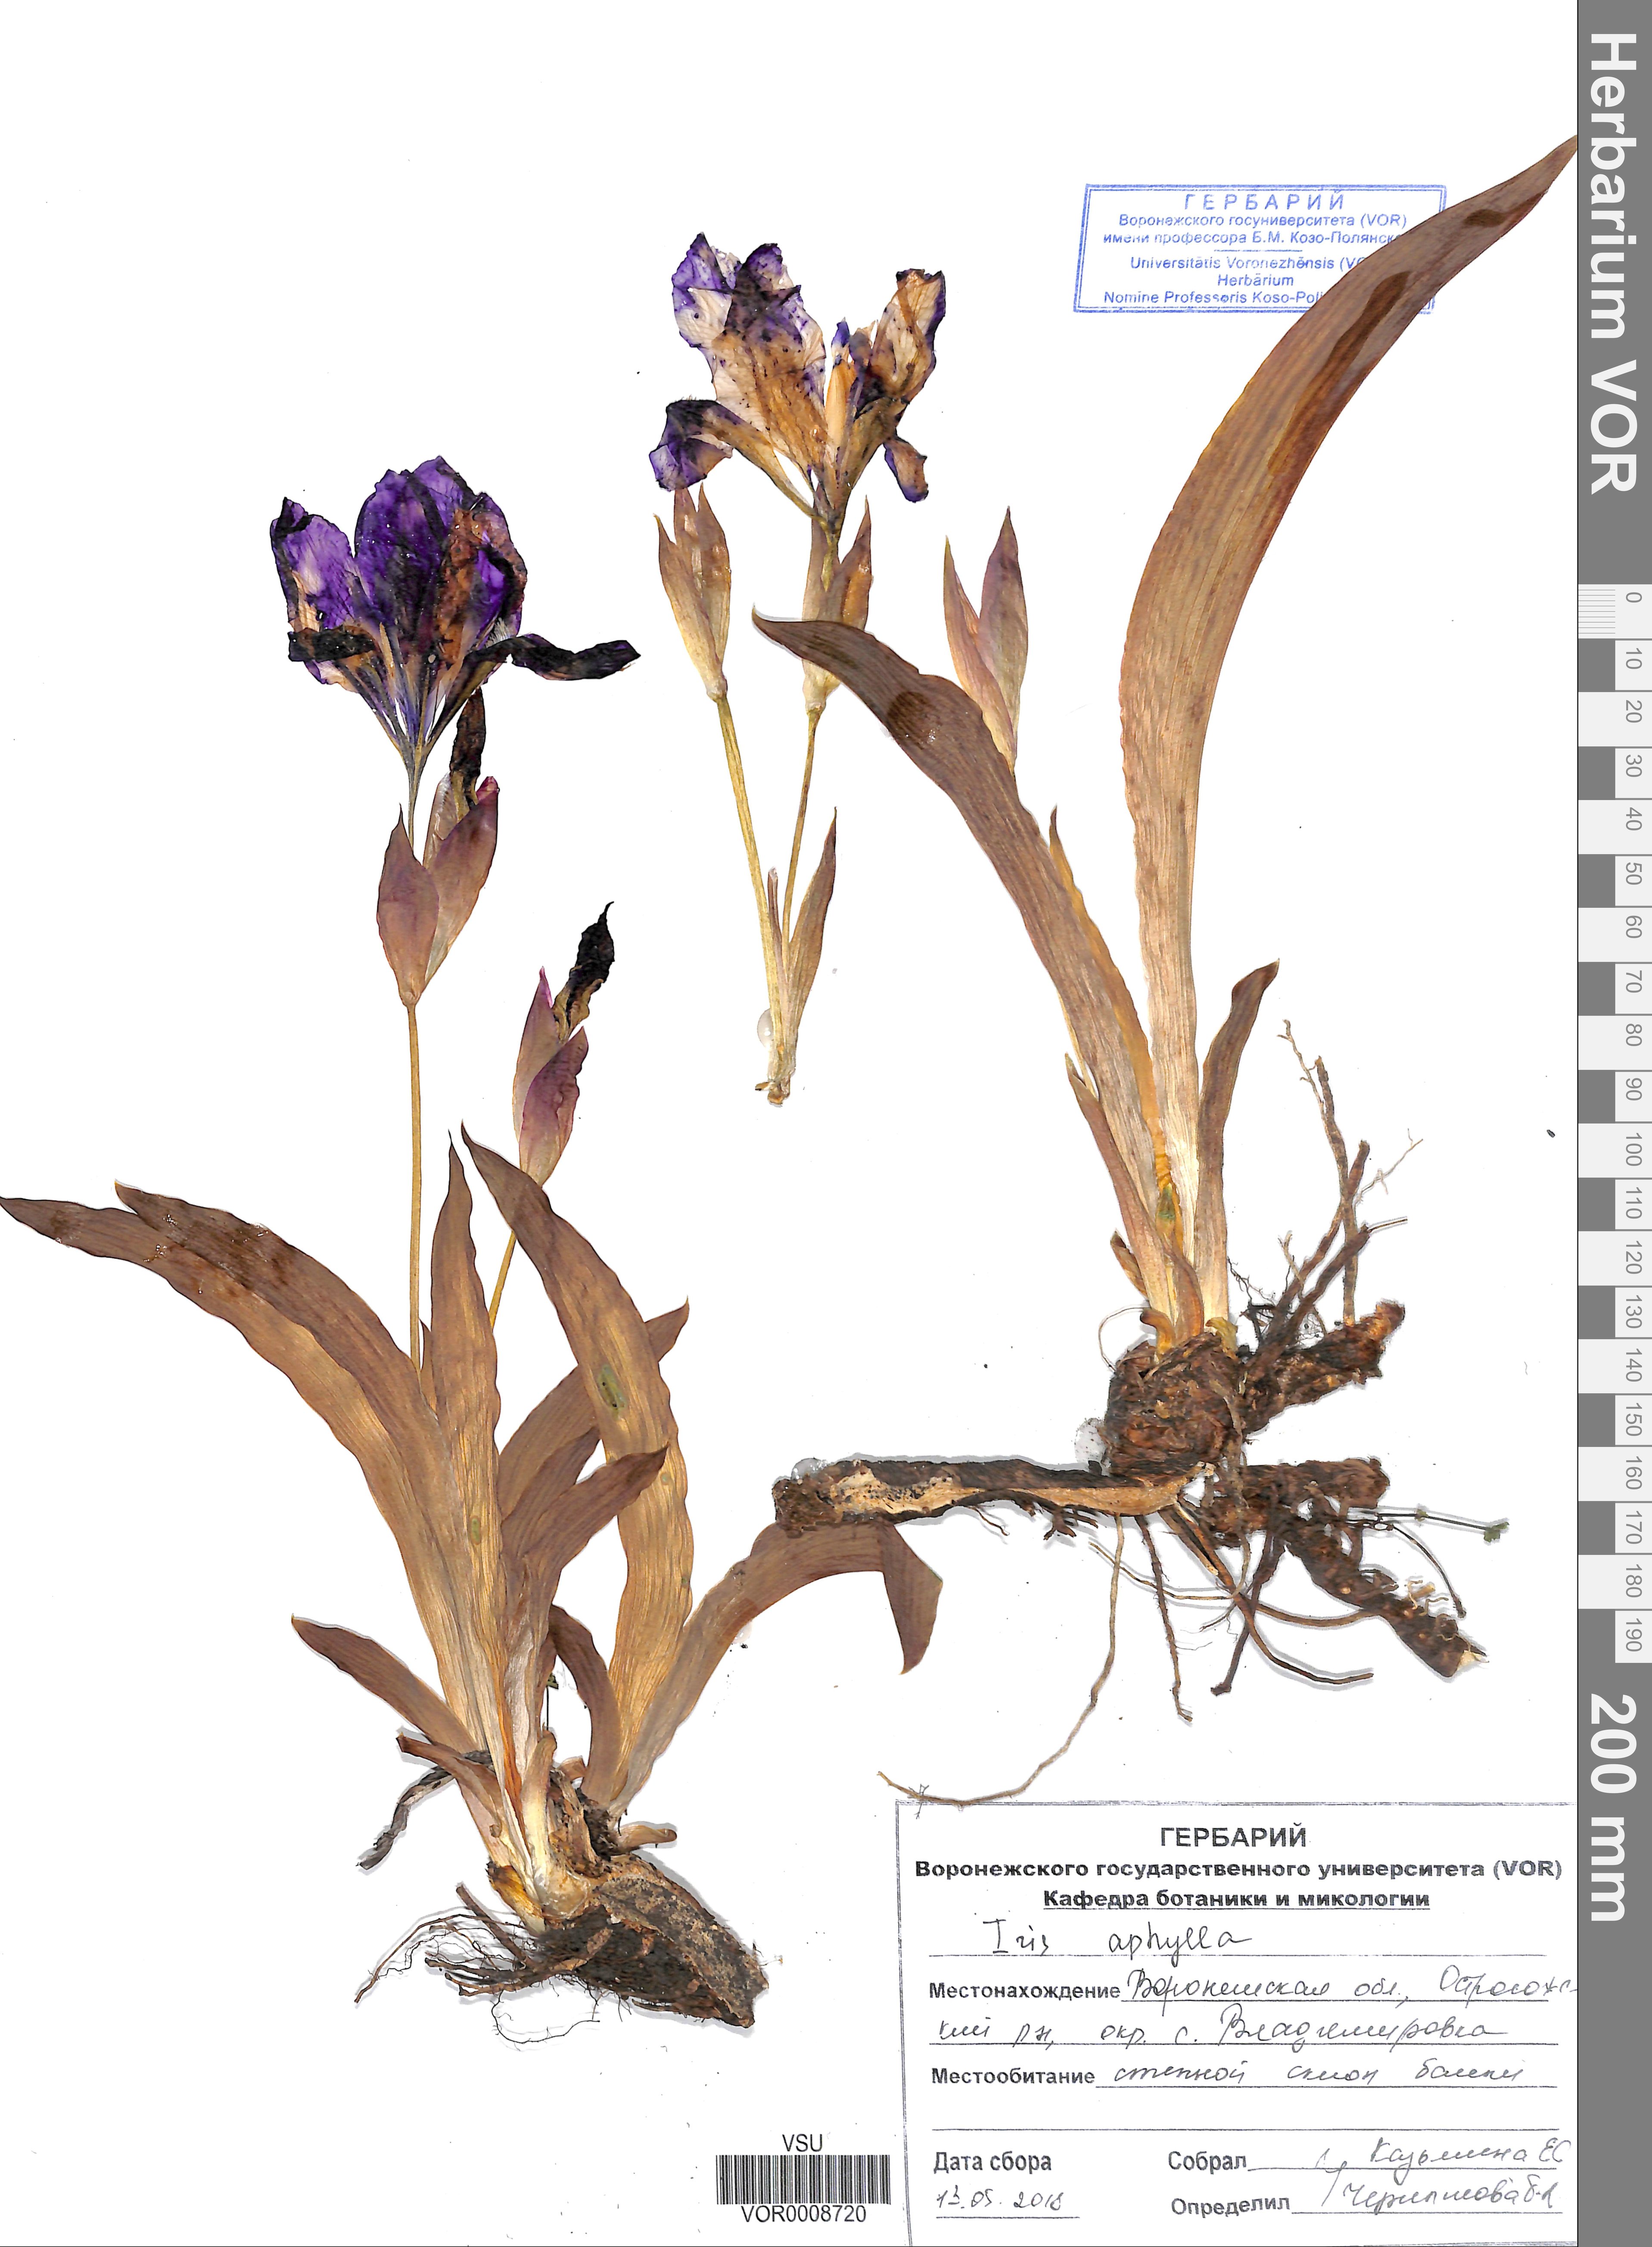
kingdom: Plantae
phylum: Tracheophyta
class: Liliopsida
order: Asparagales
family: Iridaceae
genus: Iris
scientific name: Iris aphylla
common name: Stool iris
